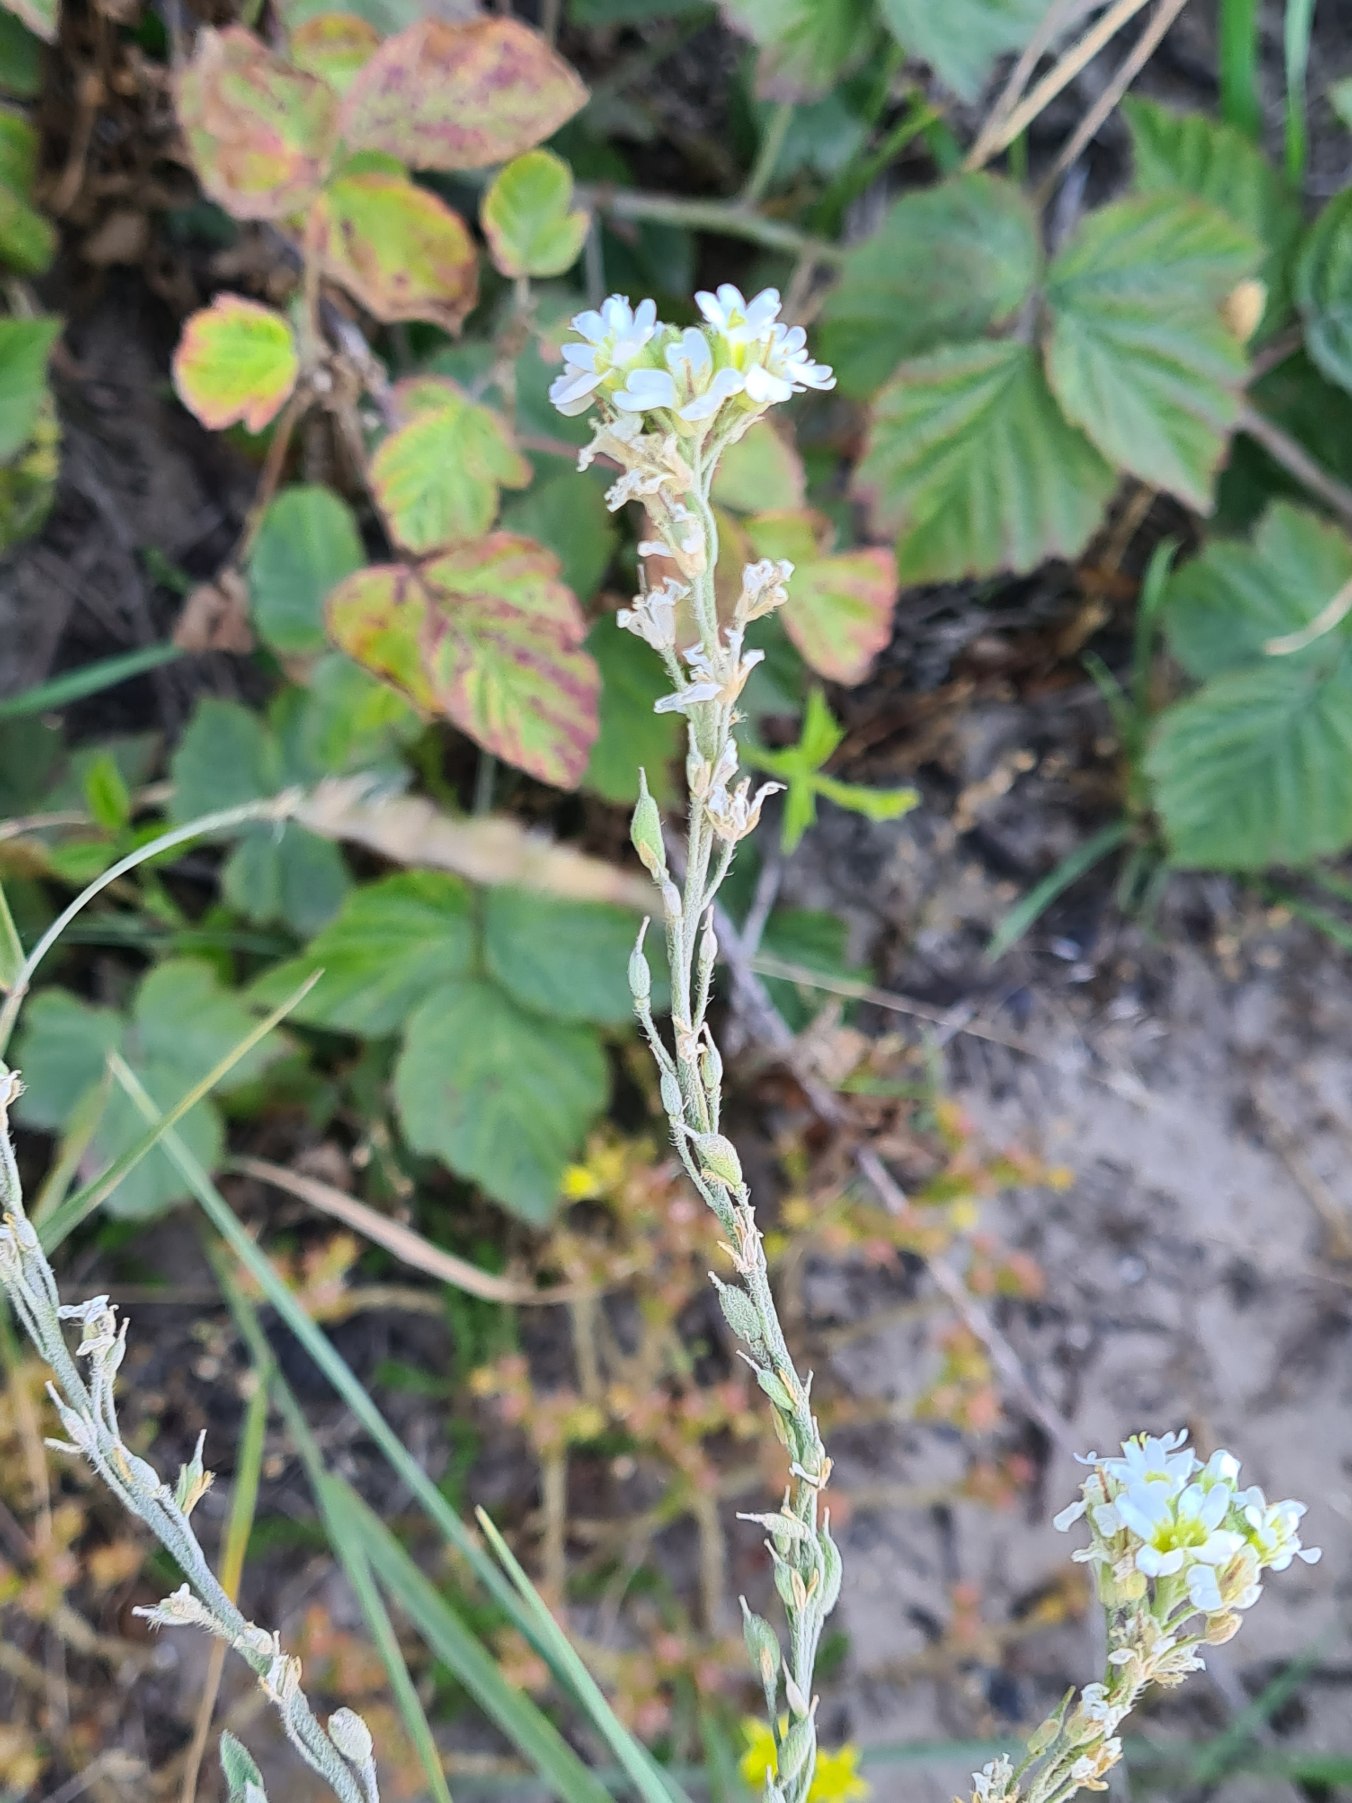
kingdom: Plantae
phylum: Tracheophyta
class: Magnoliopsida
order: Brassicales
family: Brassicaceae
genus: Berteroa
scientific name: Berteroa incana
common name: Kløvplade
